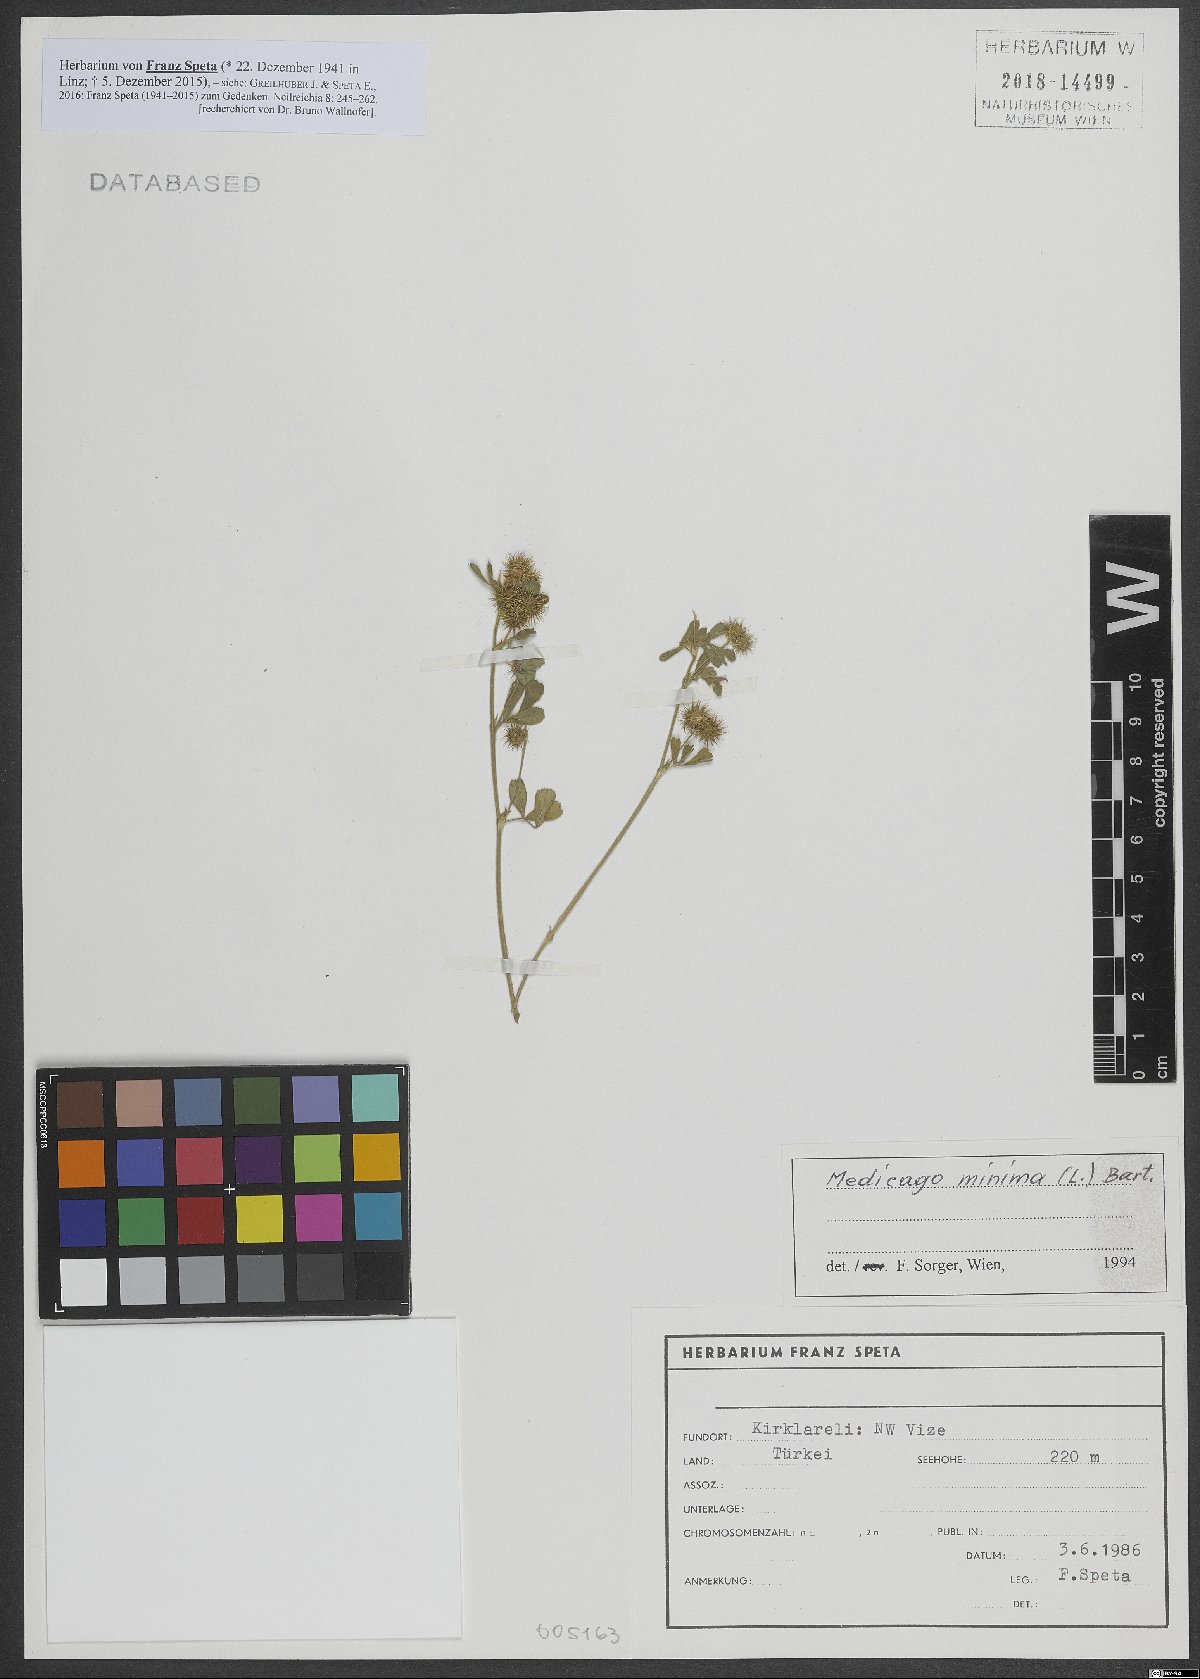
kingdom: Plantae
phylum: Tracheophyta
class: Magnoliopsida
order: Fabales
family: Fabaceae
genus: Medicago
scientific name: Medicago minima
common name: Little bur-clover
